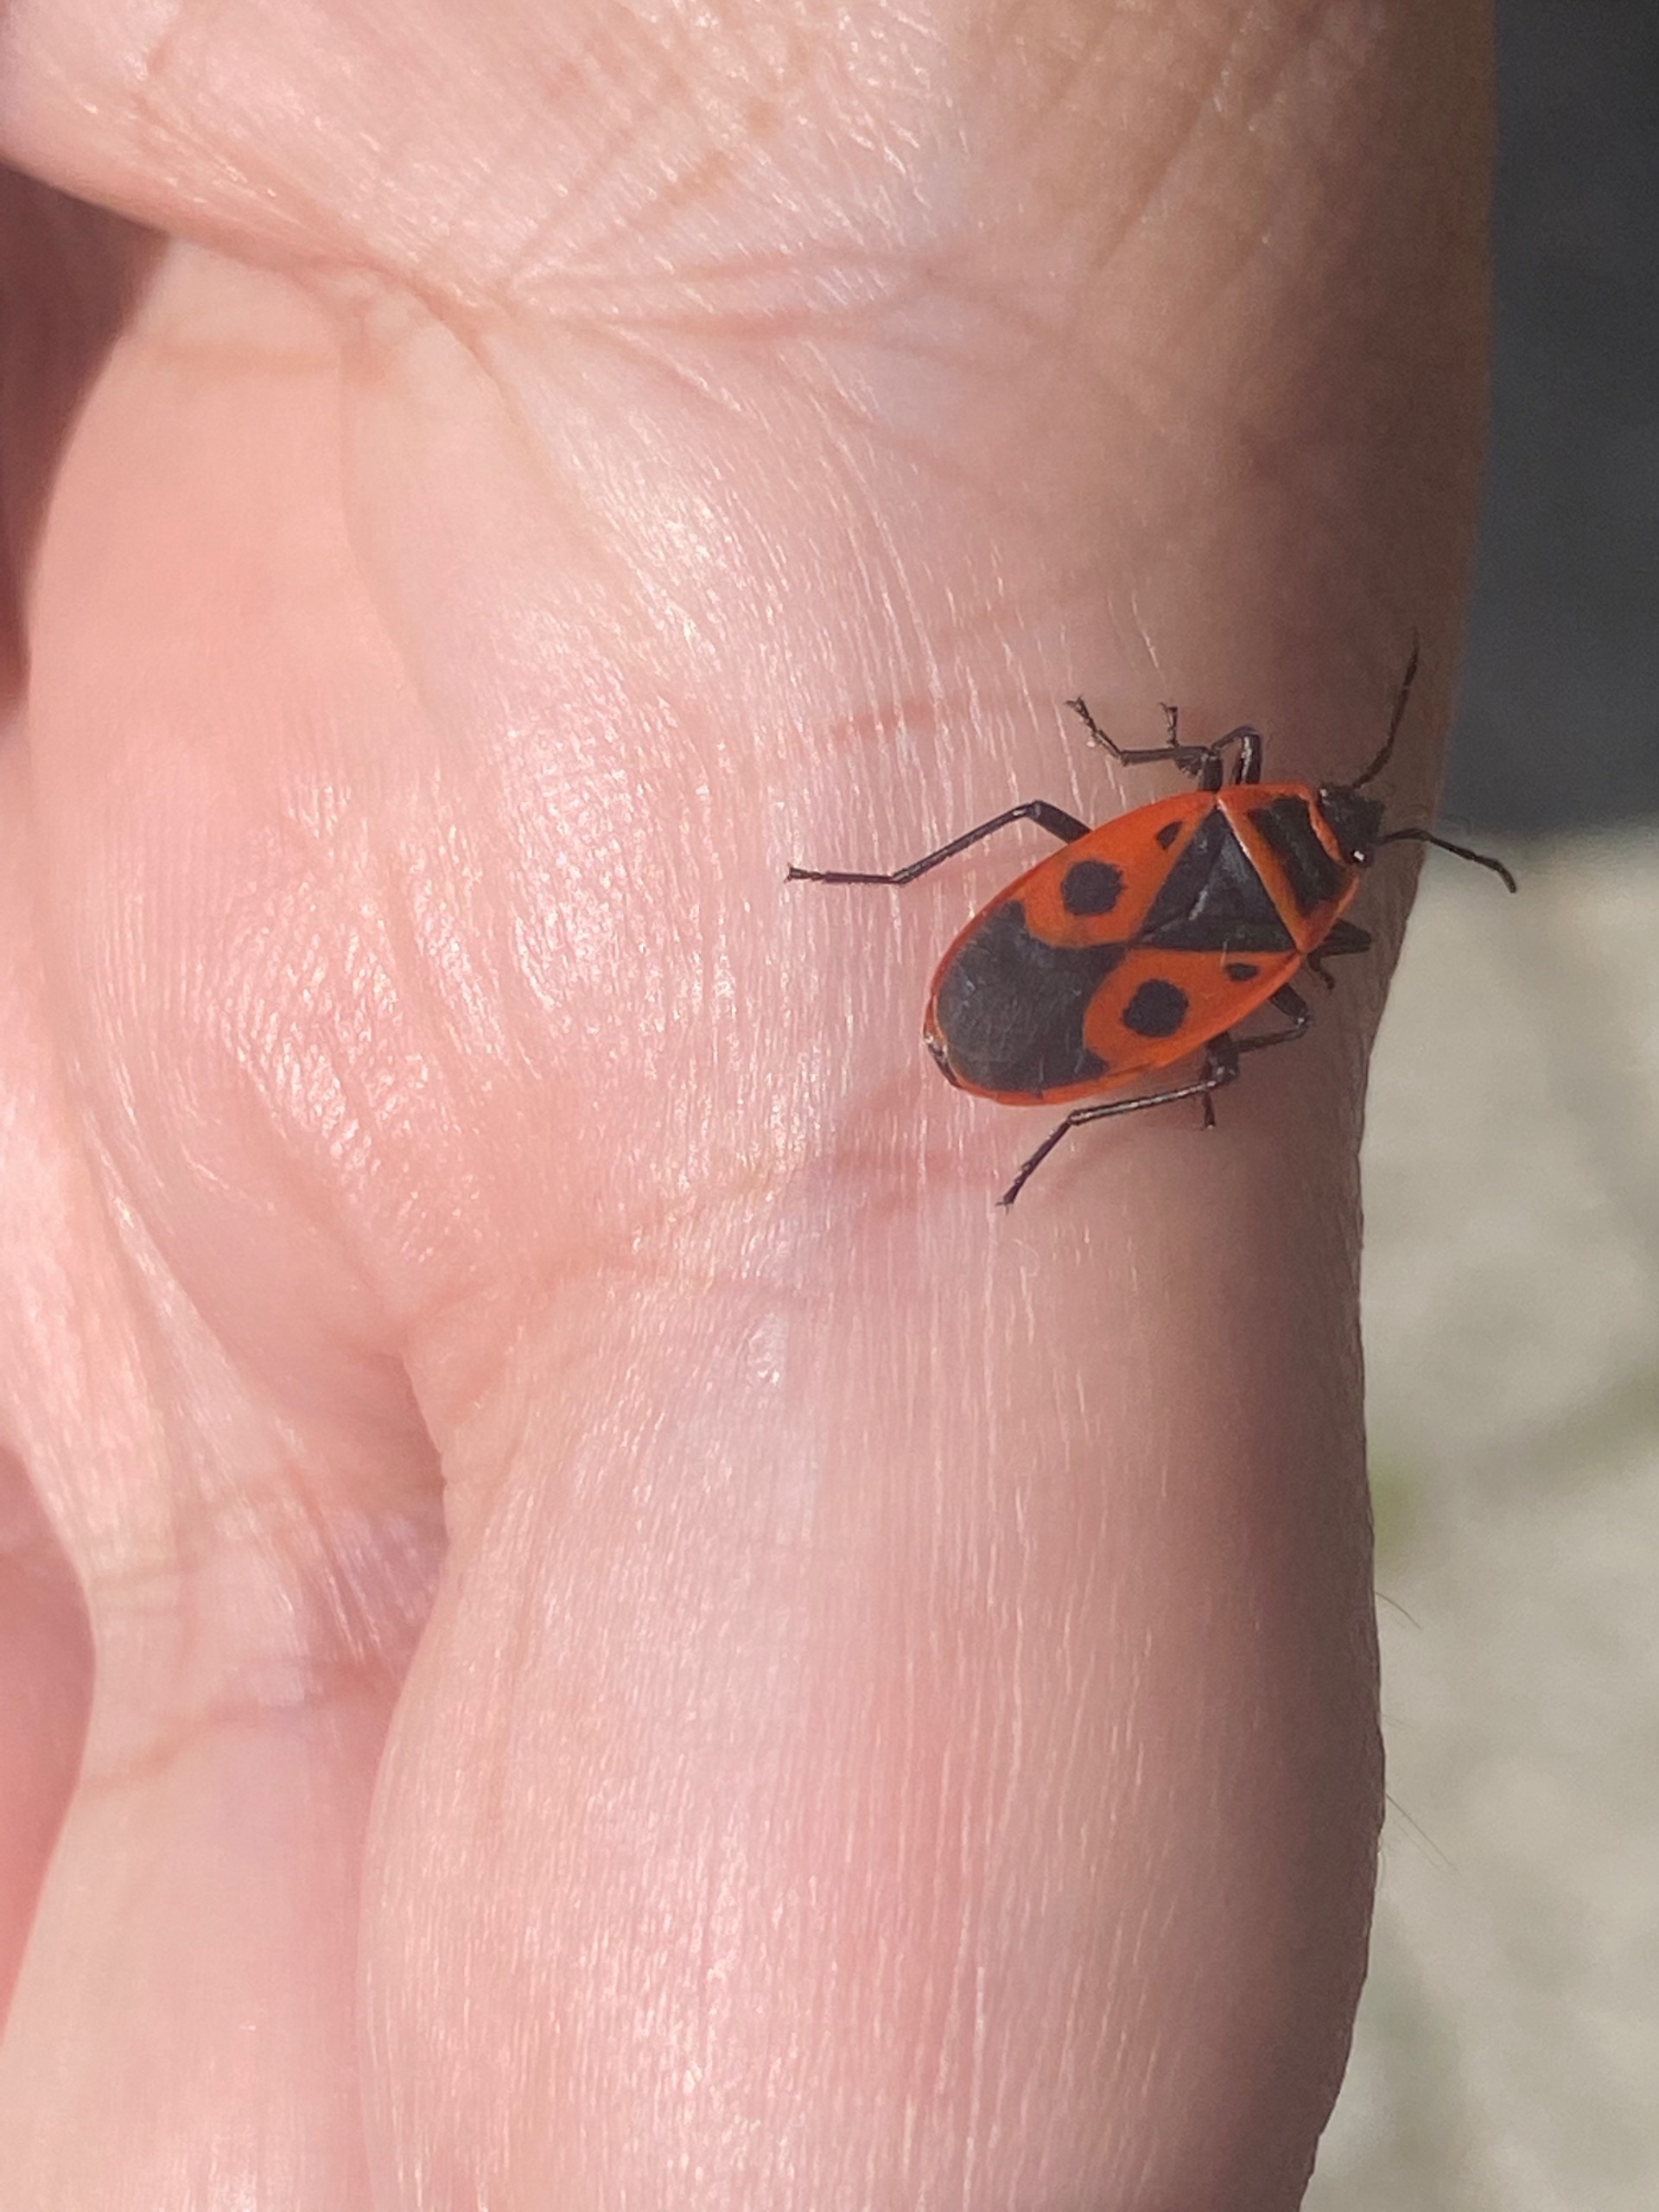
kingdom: Animalia
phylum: Arthropoda
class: Insecta
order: Hemiptera
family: Pyrrhocoridae
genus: Pyrrhocoris
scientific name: Pyrrhocoris apterus
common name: Ildtæge
